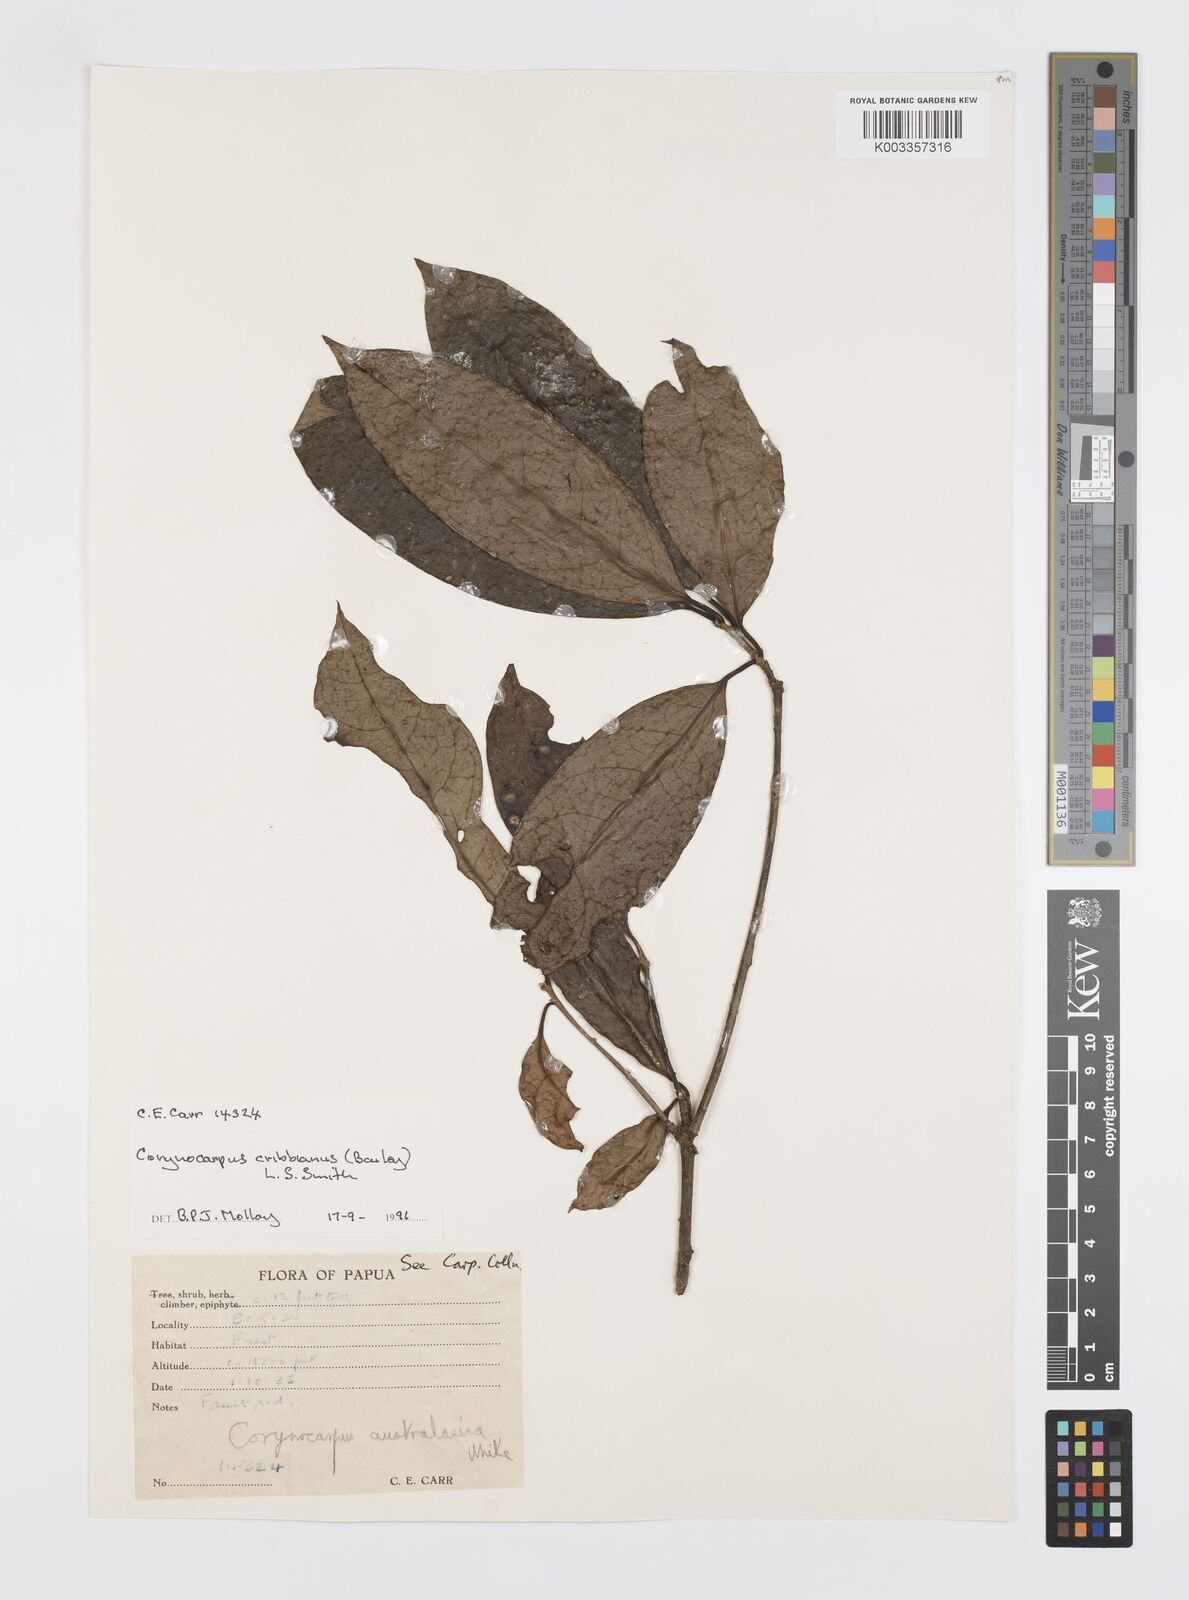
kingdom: Plantae
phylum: Tracheophyta
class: Magnoliopsida
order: Cucurbitales
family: Corynocarpaceae
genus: Corynocarpus
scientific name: Corynocarpus cribbianus
